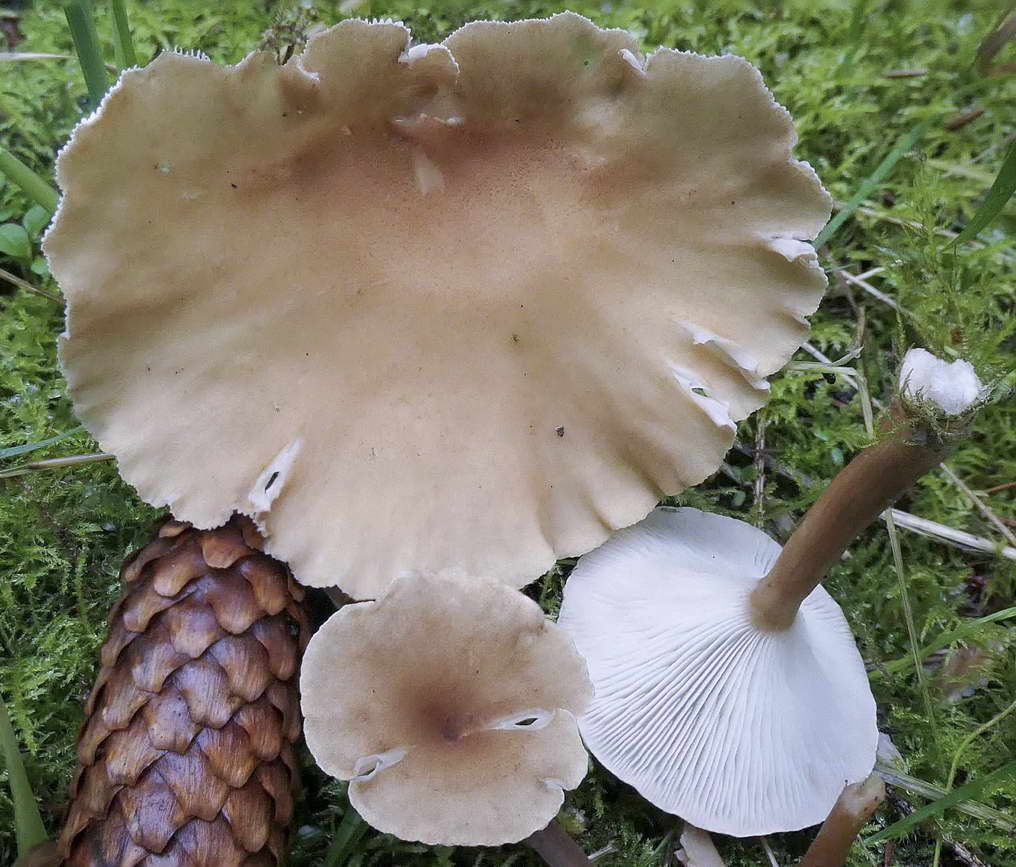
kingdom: Fungi
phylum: Basidiomycota
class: Agaricomycetes
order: Agaricales
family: Tricholomataceae
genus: Infundibulicybe
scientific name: Infundibulicybe squamulosa
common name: småskællet tragthat
